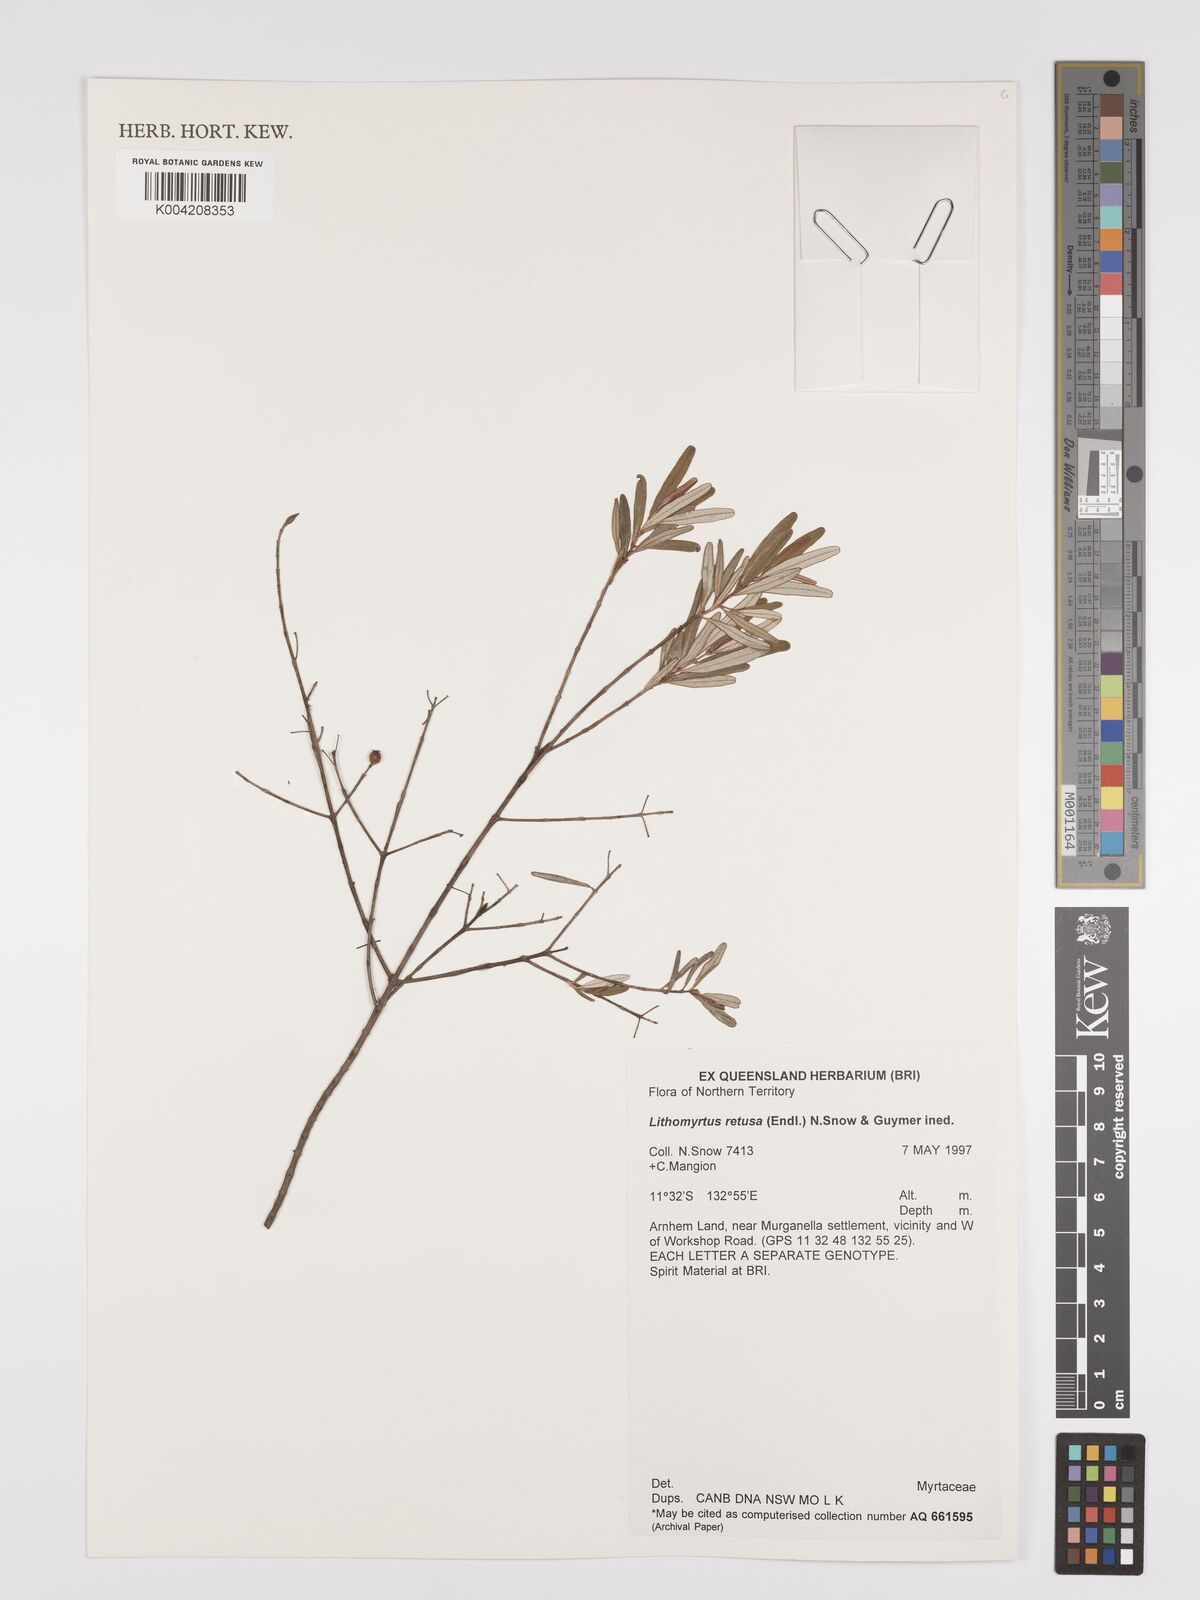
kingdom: Plantae
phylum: Tracheophyta
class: Magnoliopsida
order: Myrtales
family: Myrtaceae
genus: Lithomyrtus
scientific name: Lithomyrtus retusa
